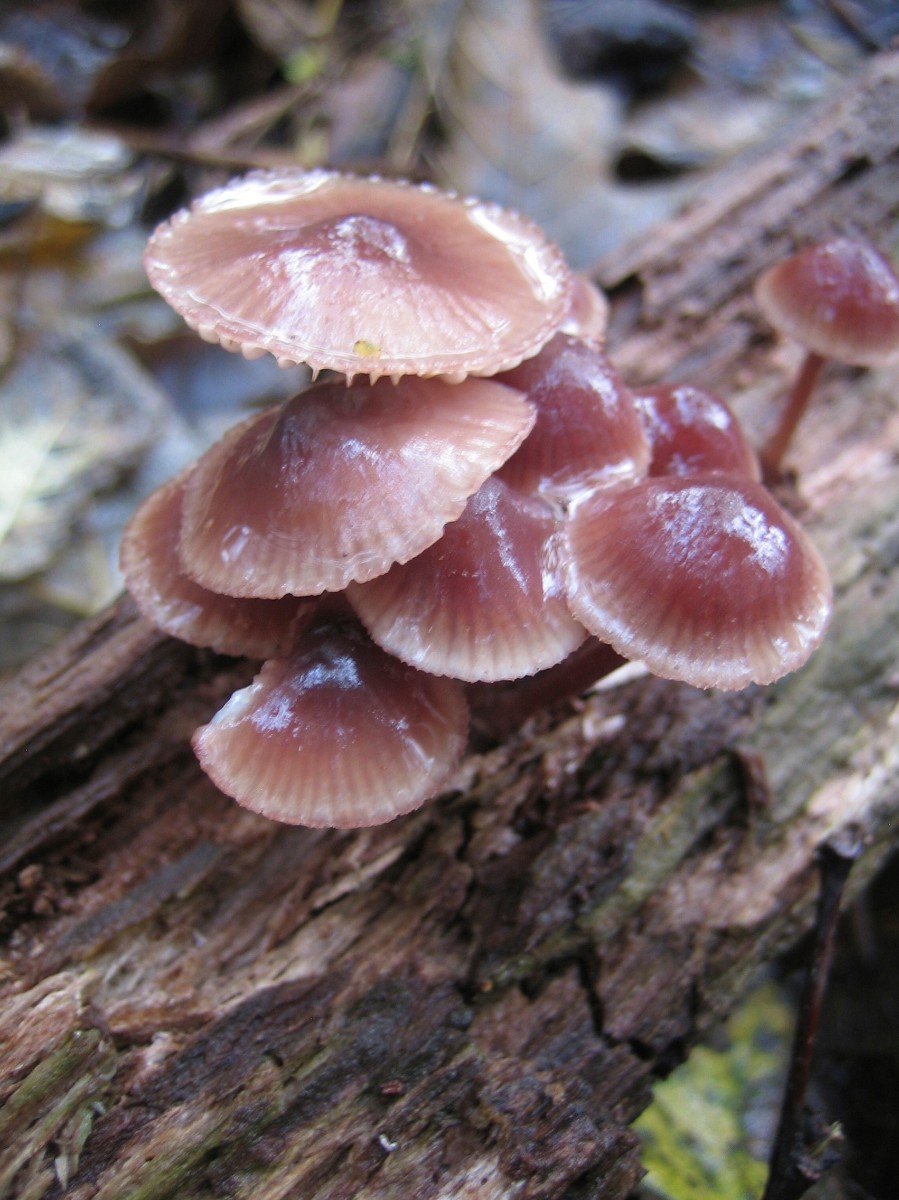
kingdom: Fungi
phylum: Basidiomycota
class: Agaricomycetes
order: Agaricales
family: Mycenaceae
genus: Mycena
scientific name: Mycena haematopus
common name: blødende huesvamp
